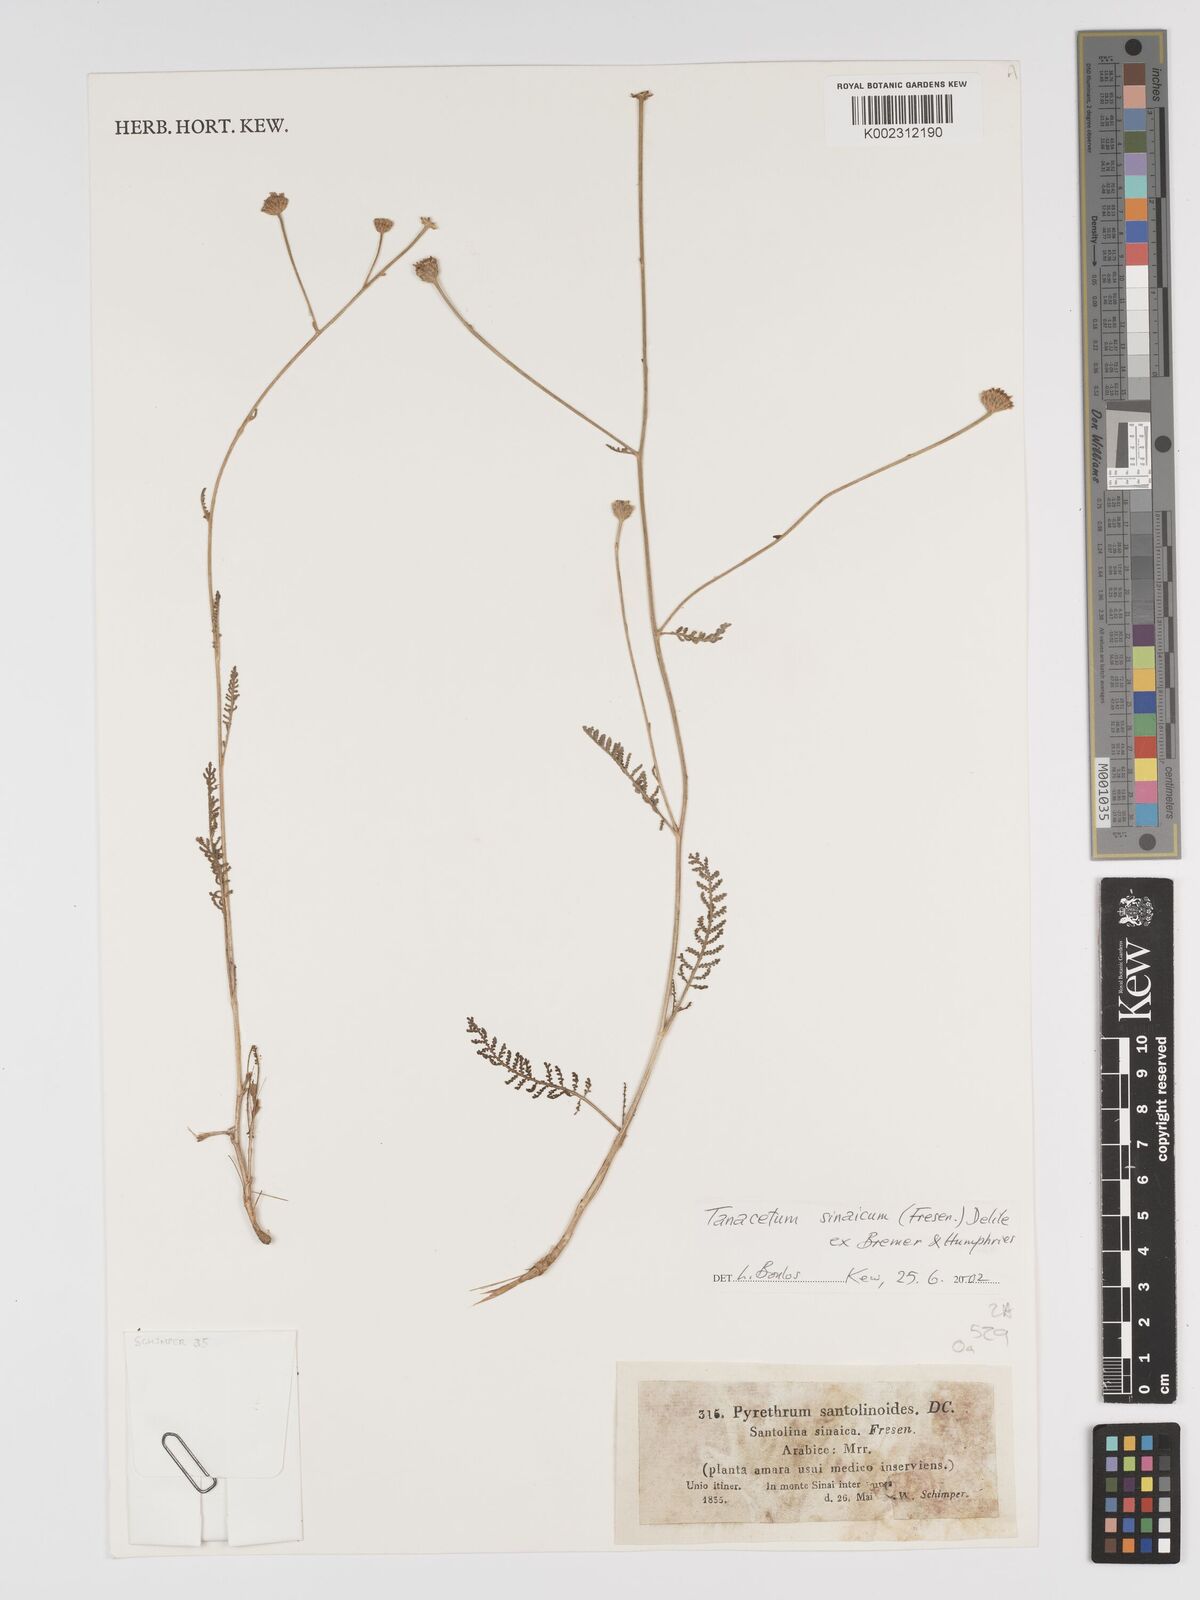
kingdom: Plantae
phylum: Tracheophyta
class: Magnoliopsida
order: Asterales
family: Asteraceae
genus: Tanacetum
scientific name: Tanacetum sinaicum
